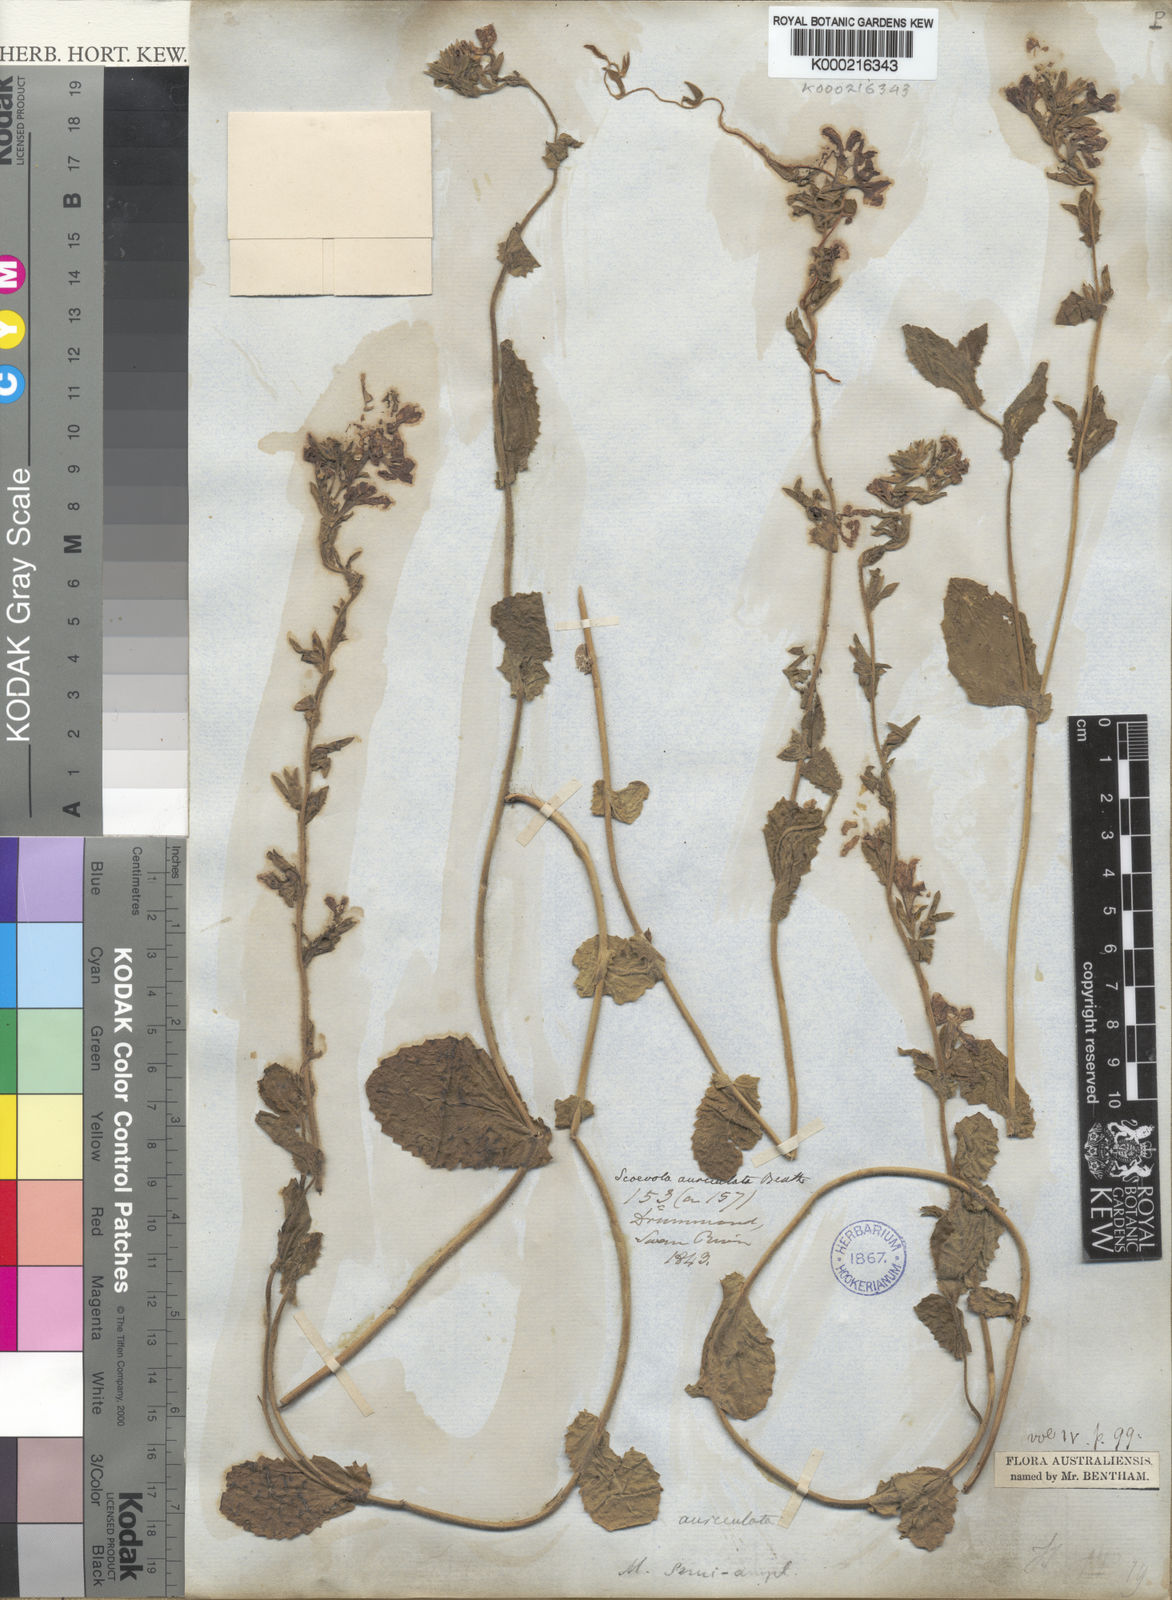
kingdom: Plantae
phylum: Tracheophyta
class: Magnoliopsida
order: Asterales
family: Goodeniaceae
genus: Scaevola
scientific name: Scaevola auriculata
